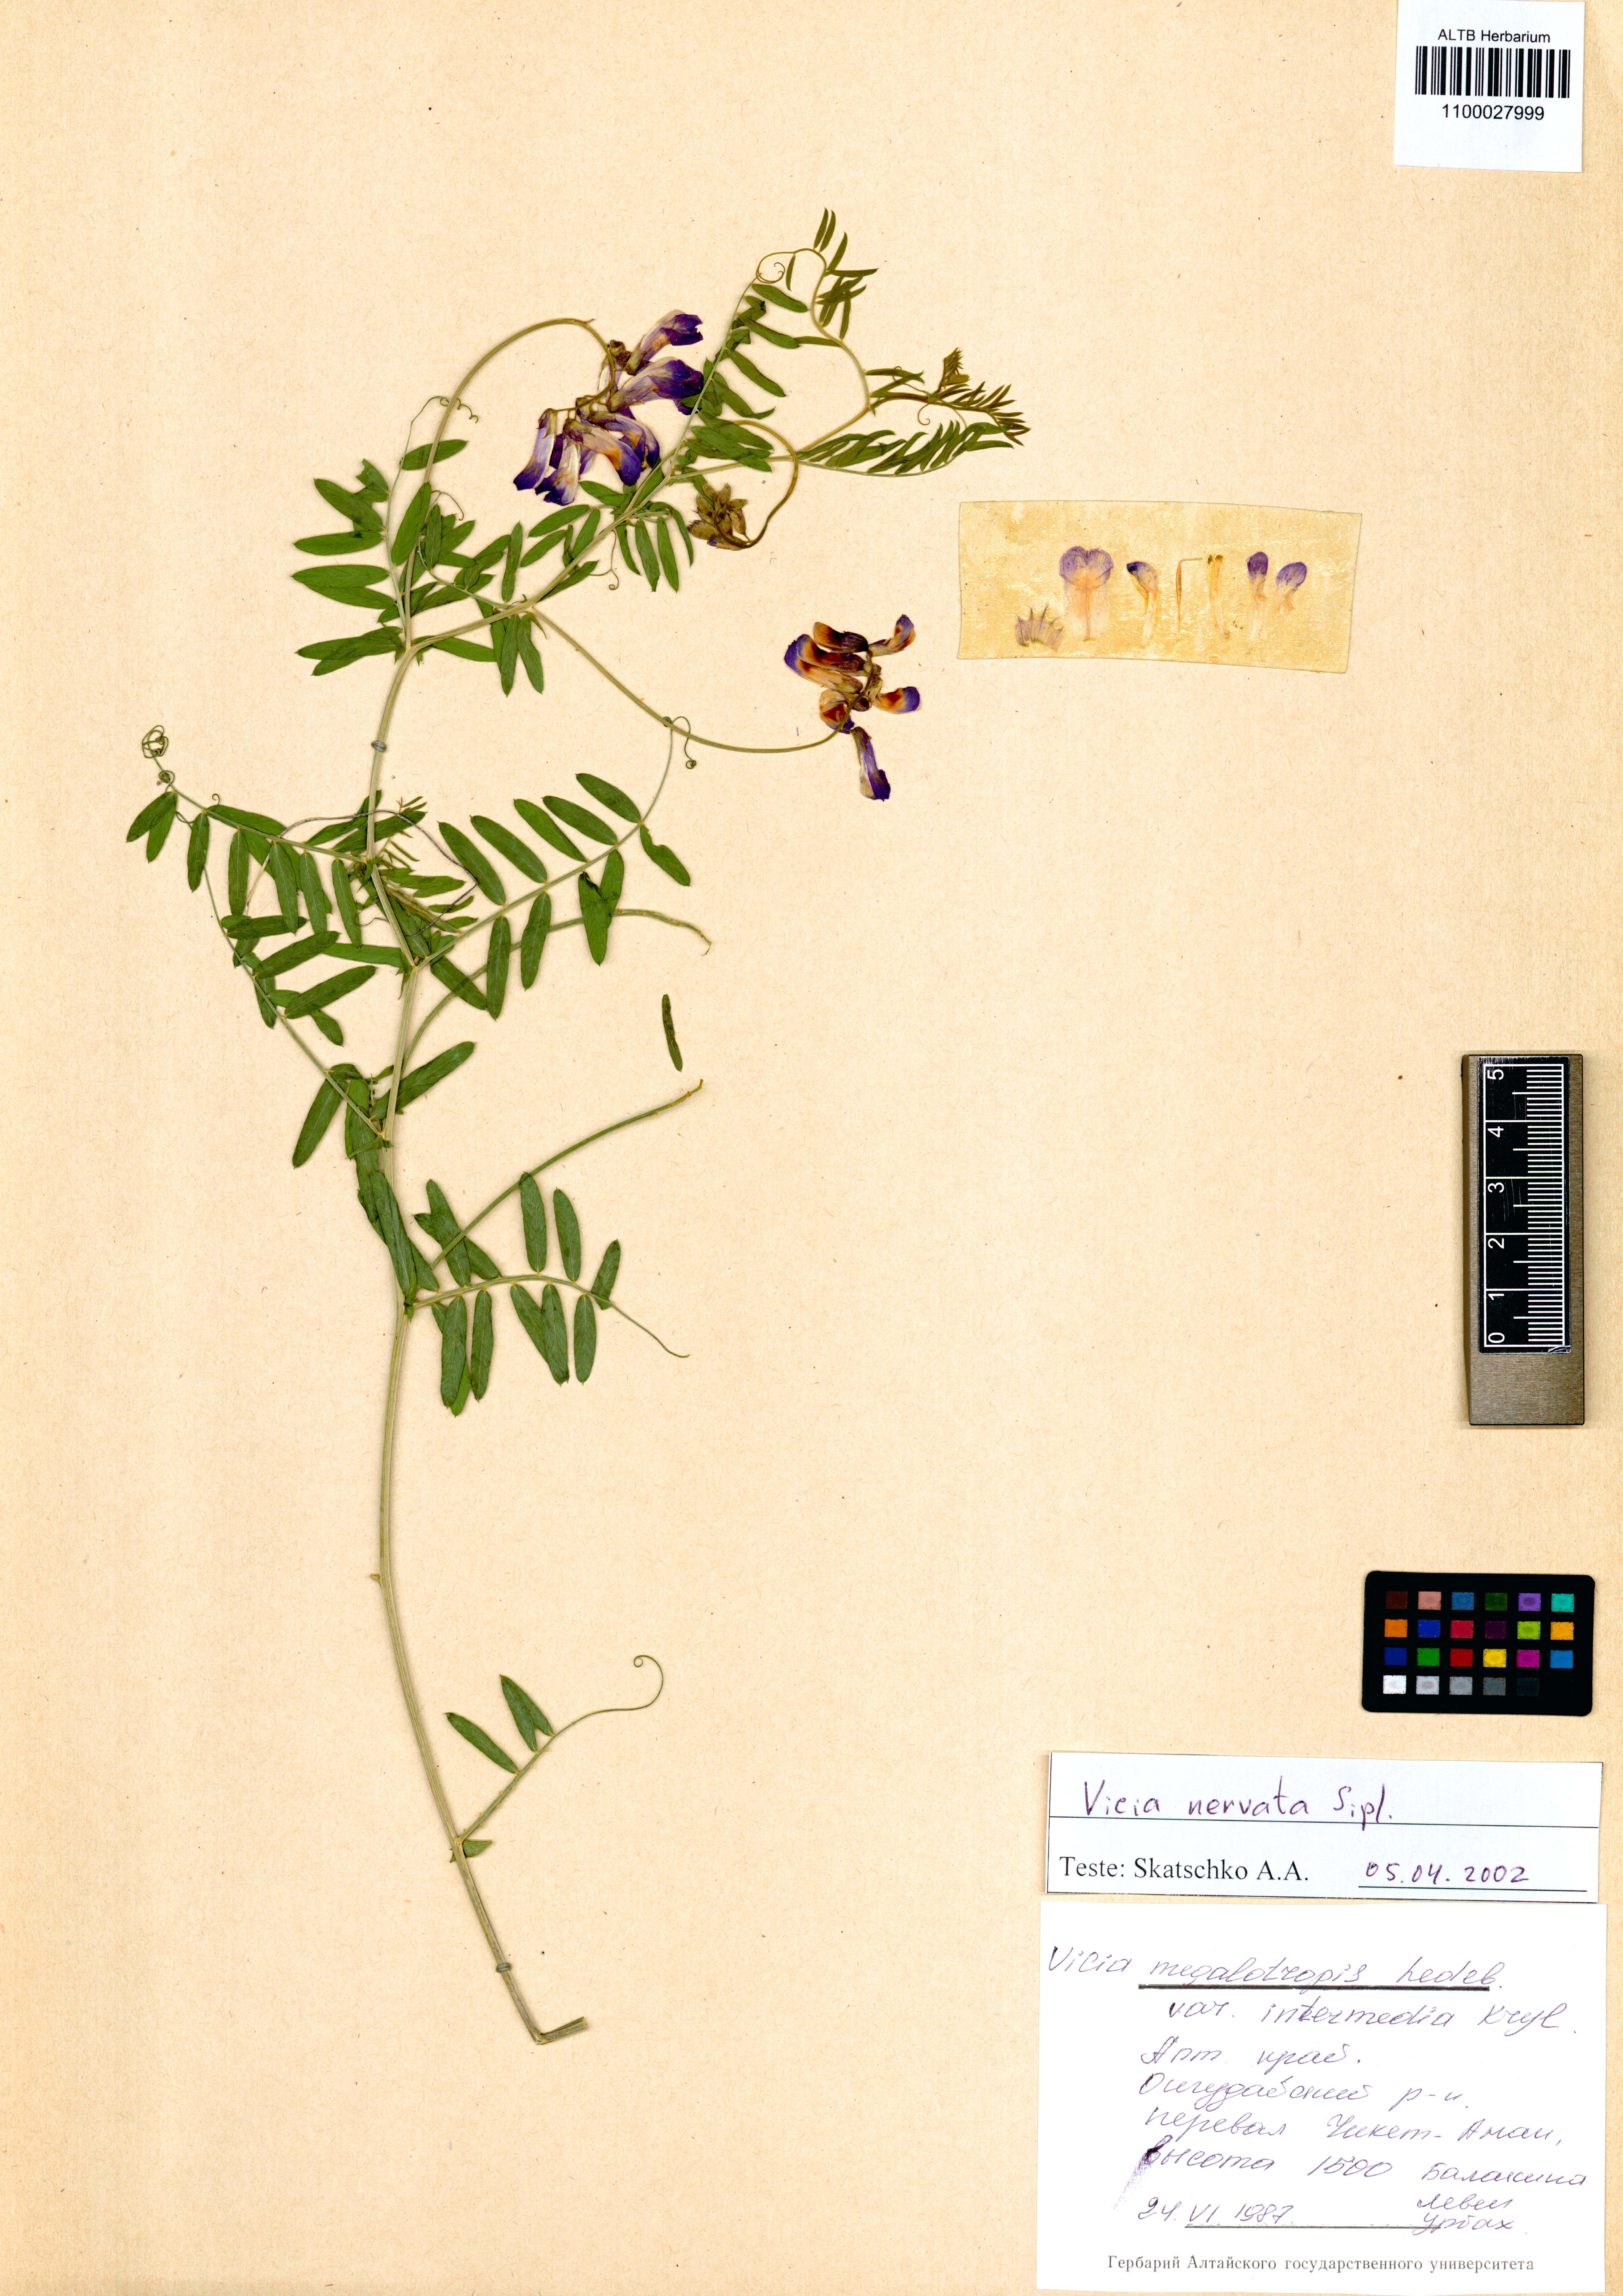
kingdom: Plantae
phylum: Tracheophyta
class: Magnoliopsida
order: Fabales
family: Fabaceae
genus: Vicia
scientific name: Vicia multicaulis
